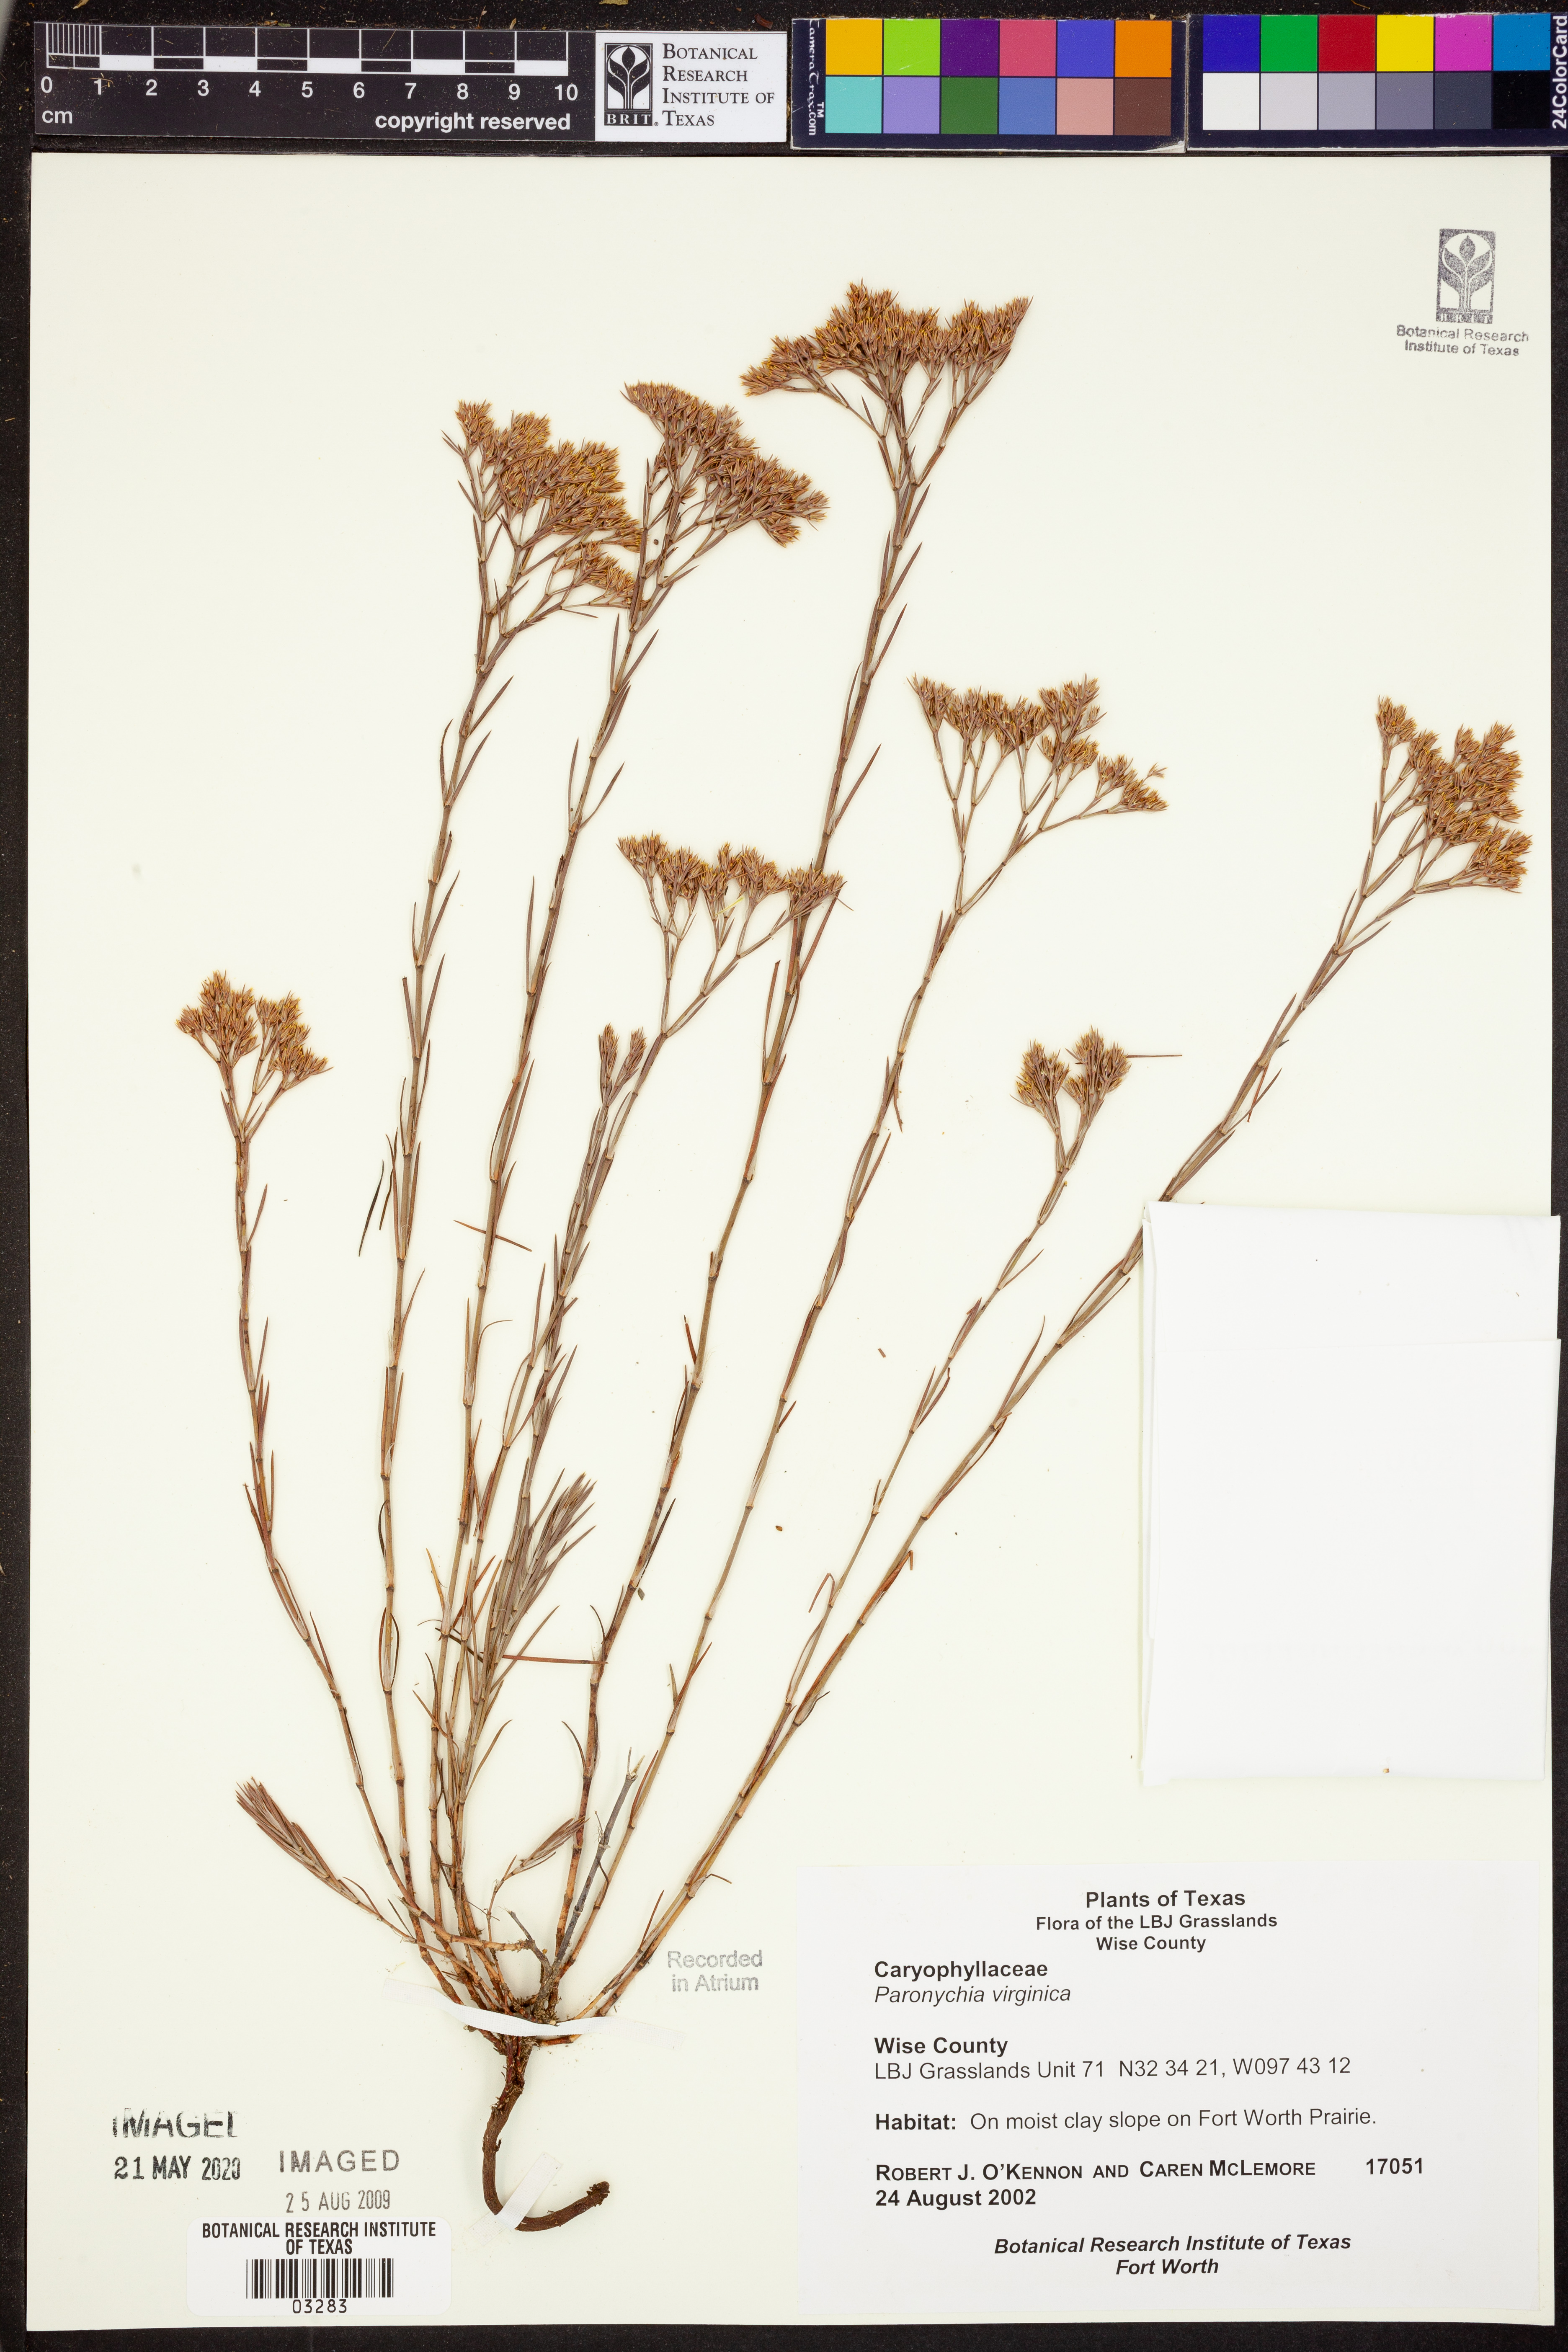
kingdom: Plantae
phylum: Tracheophyta
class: Magnoliopsida
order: Caryophyllales
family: Caryophyllaceae
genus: Paronychia
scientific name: Paronychia virginica
